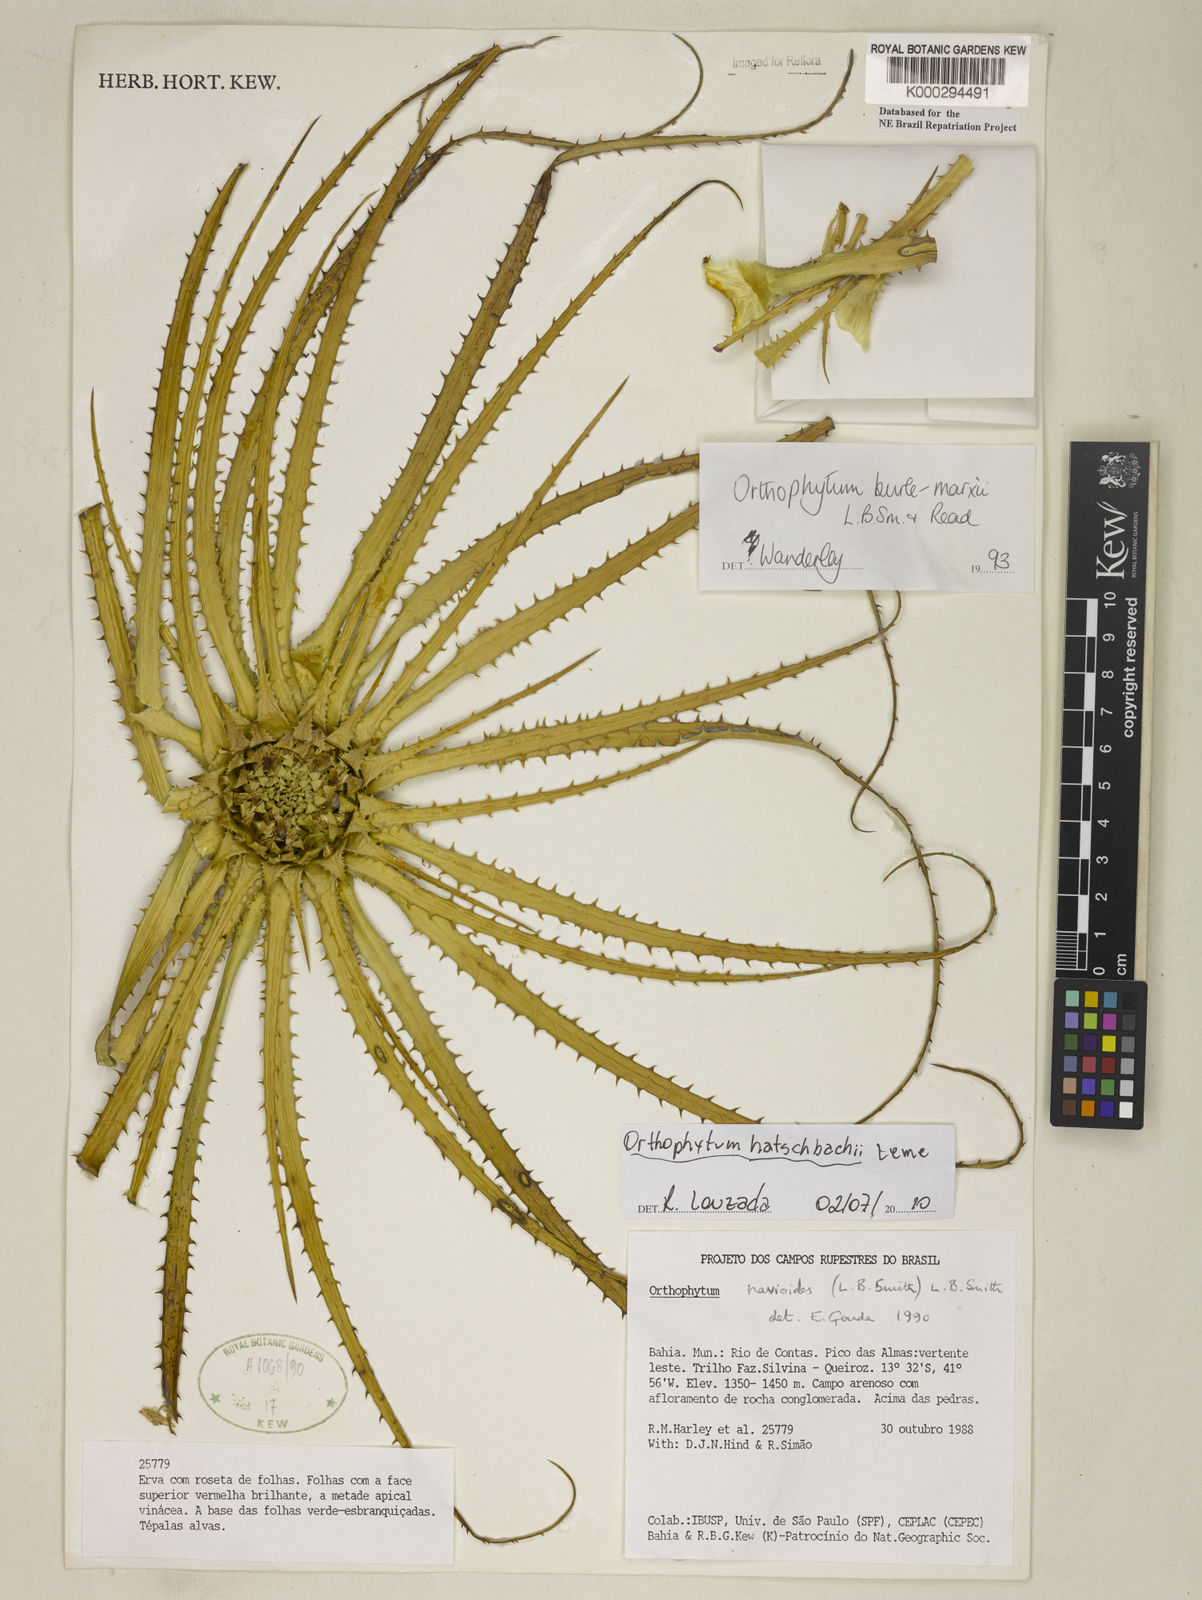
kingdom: Plantae
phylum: Tracheophyta
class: Liliopsida
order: Poales
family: Bromeliaceae
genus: Sincoraea
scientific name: Sincoraea burle-marxii
